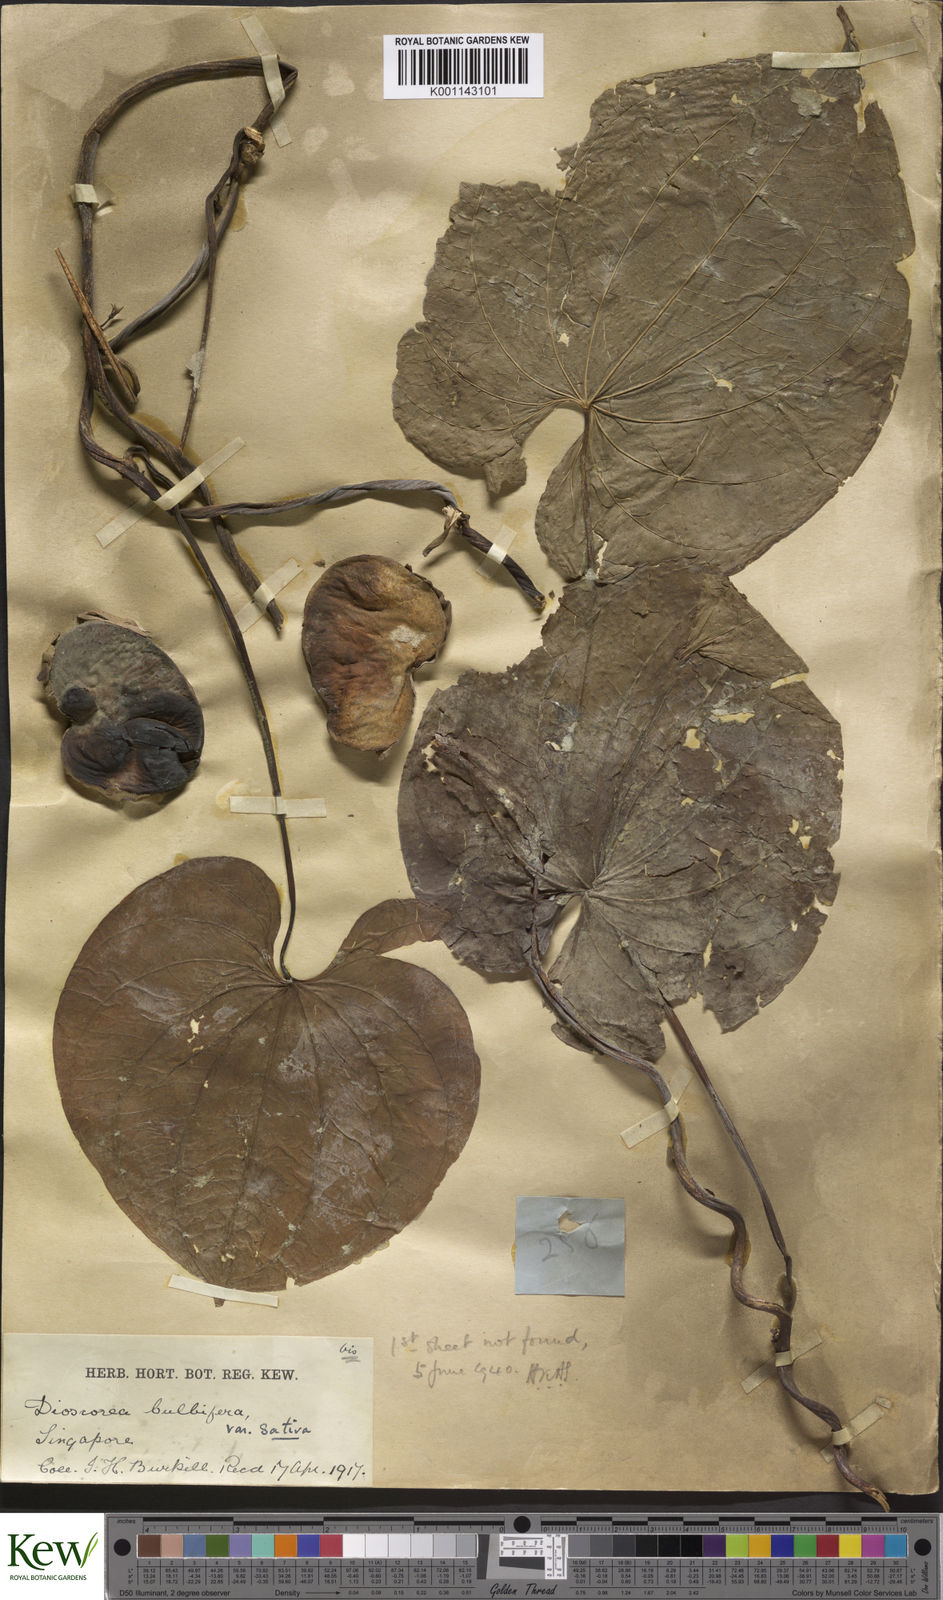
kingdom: Plantae
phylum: Tracheophyta
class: Liliopsida
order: Dioscoreales
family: Dioscoreaceae
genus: Dioscorea
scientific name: Dioscorea bulbifera
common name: Air yam
